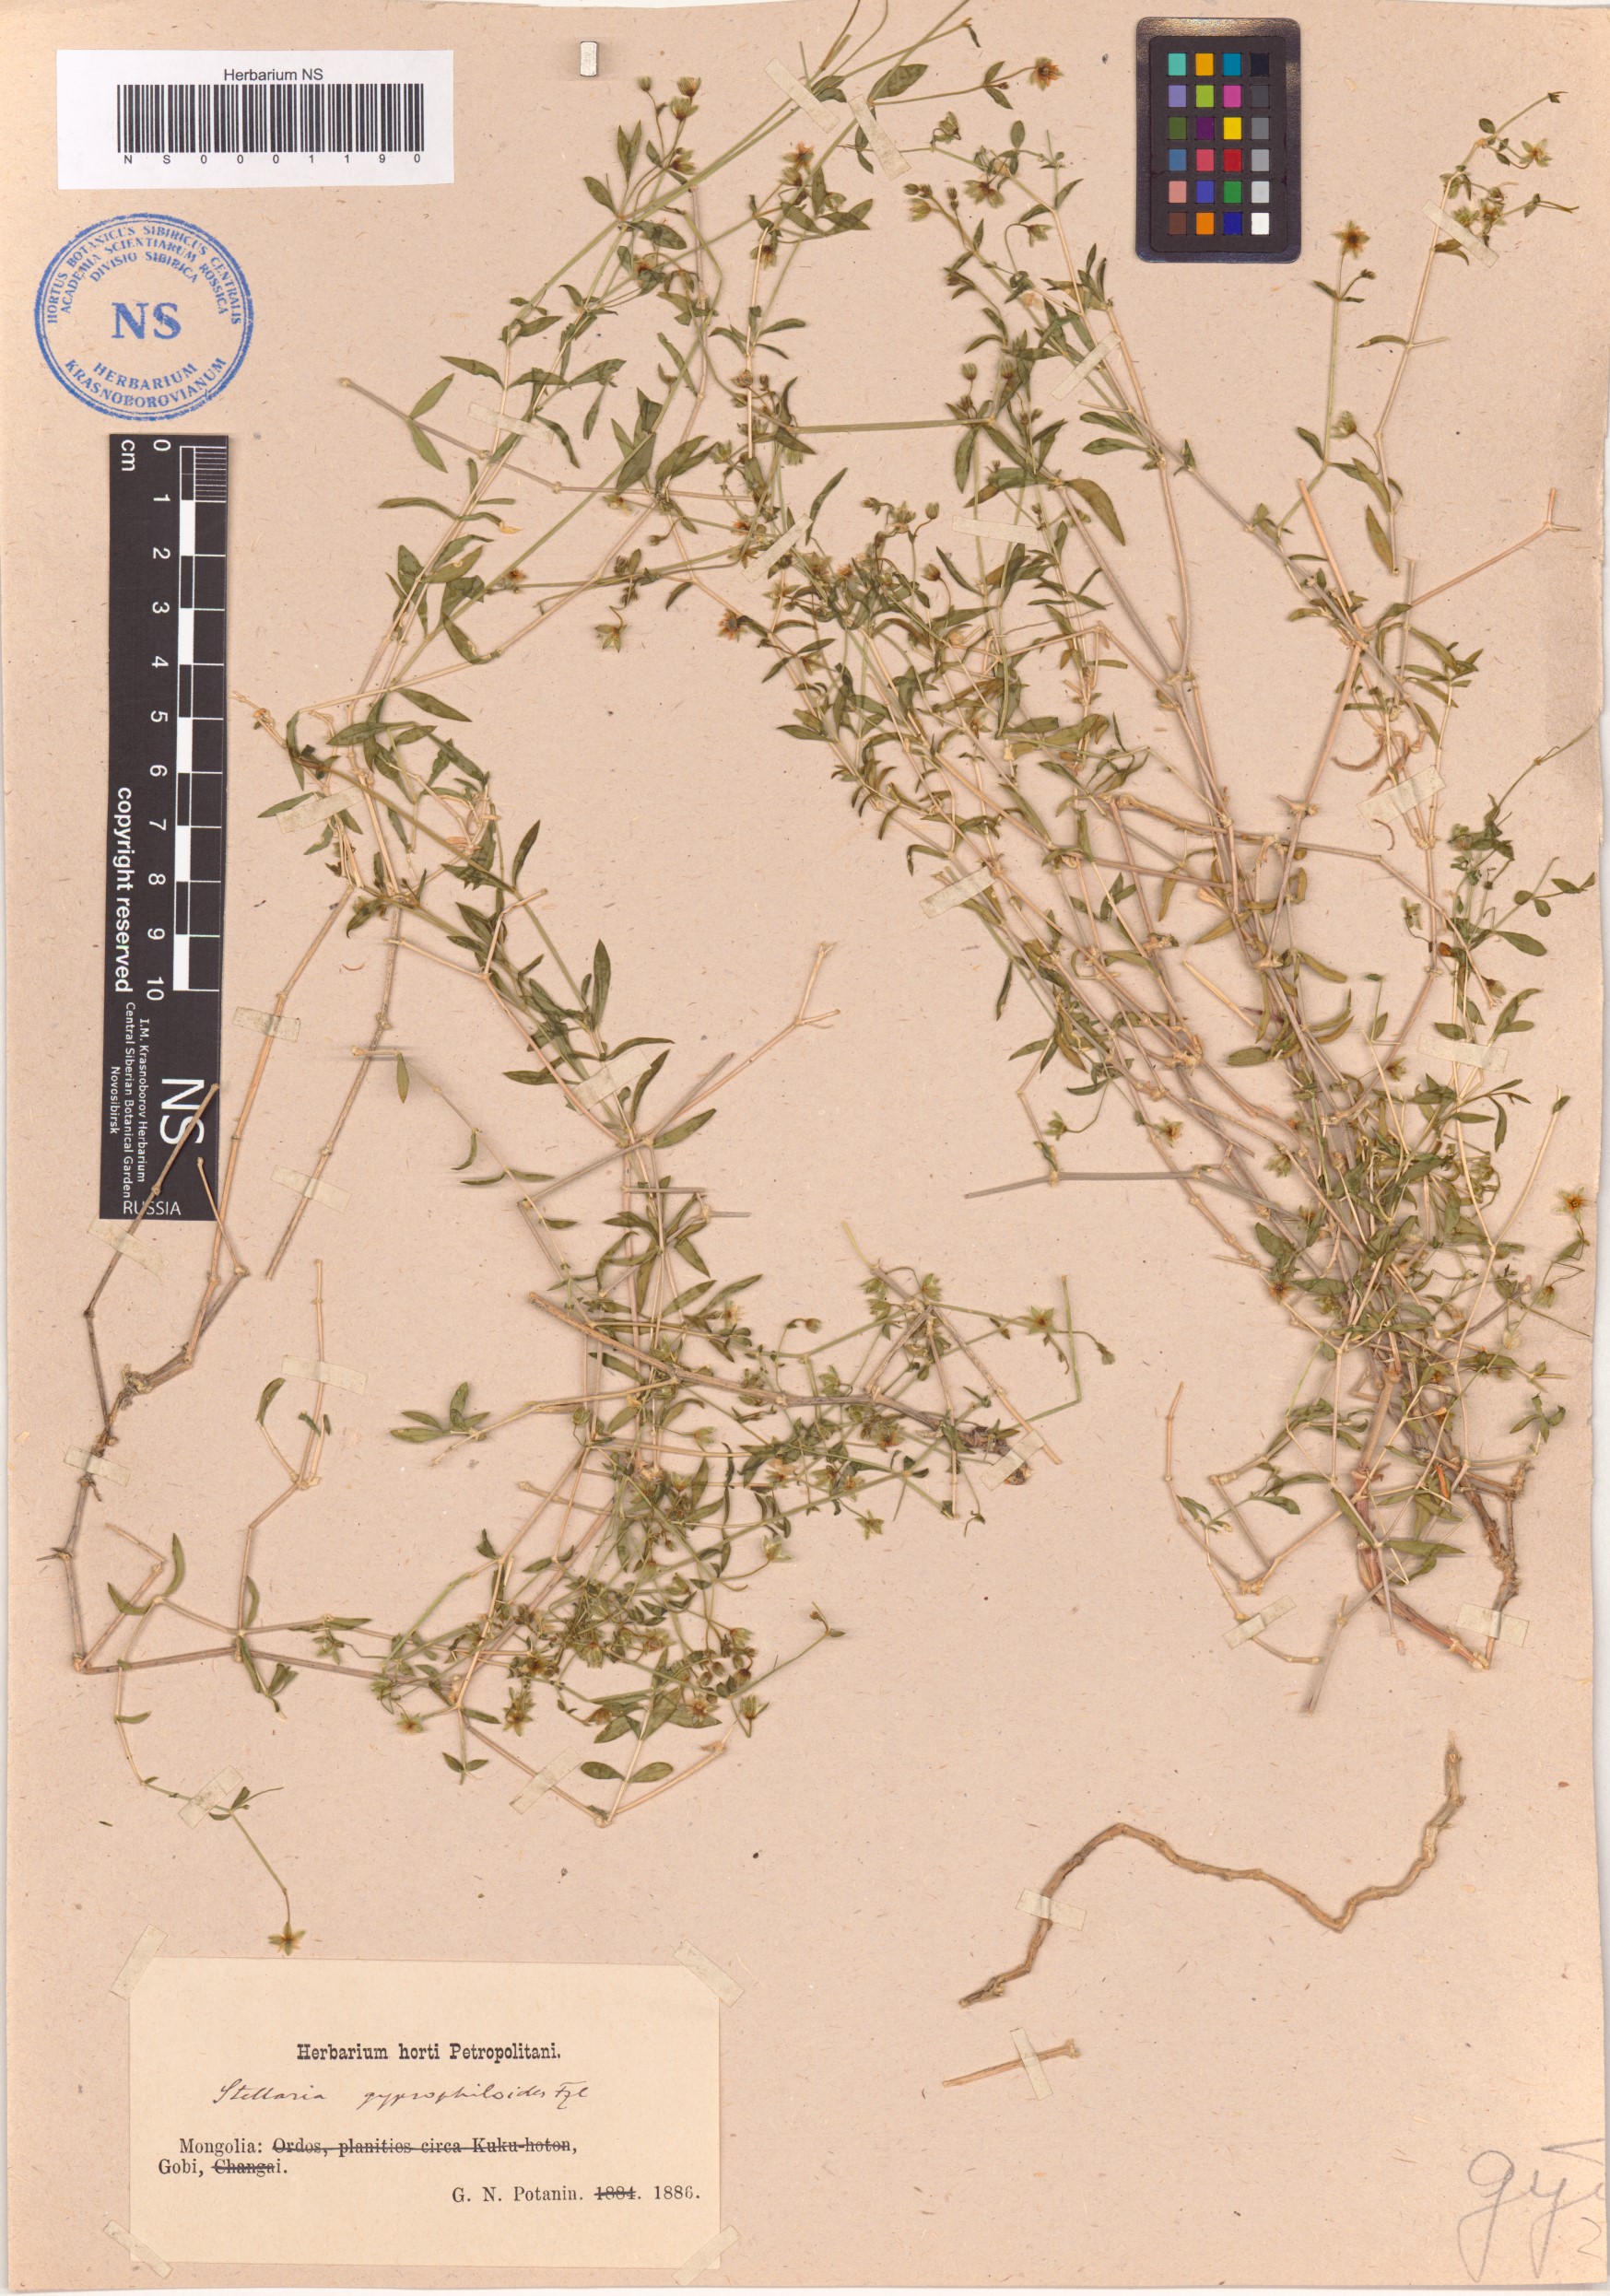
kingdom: Plantae
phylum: Tracheophyta
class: Magnoliopsida
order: Caryophyllales
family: Caryophyllaceae
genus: Mesostemma
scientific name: Mesostemma gypsophiloides
